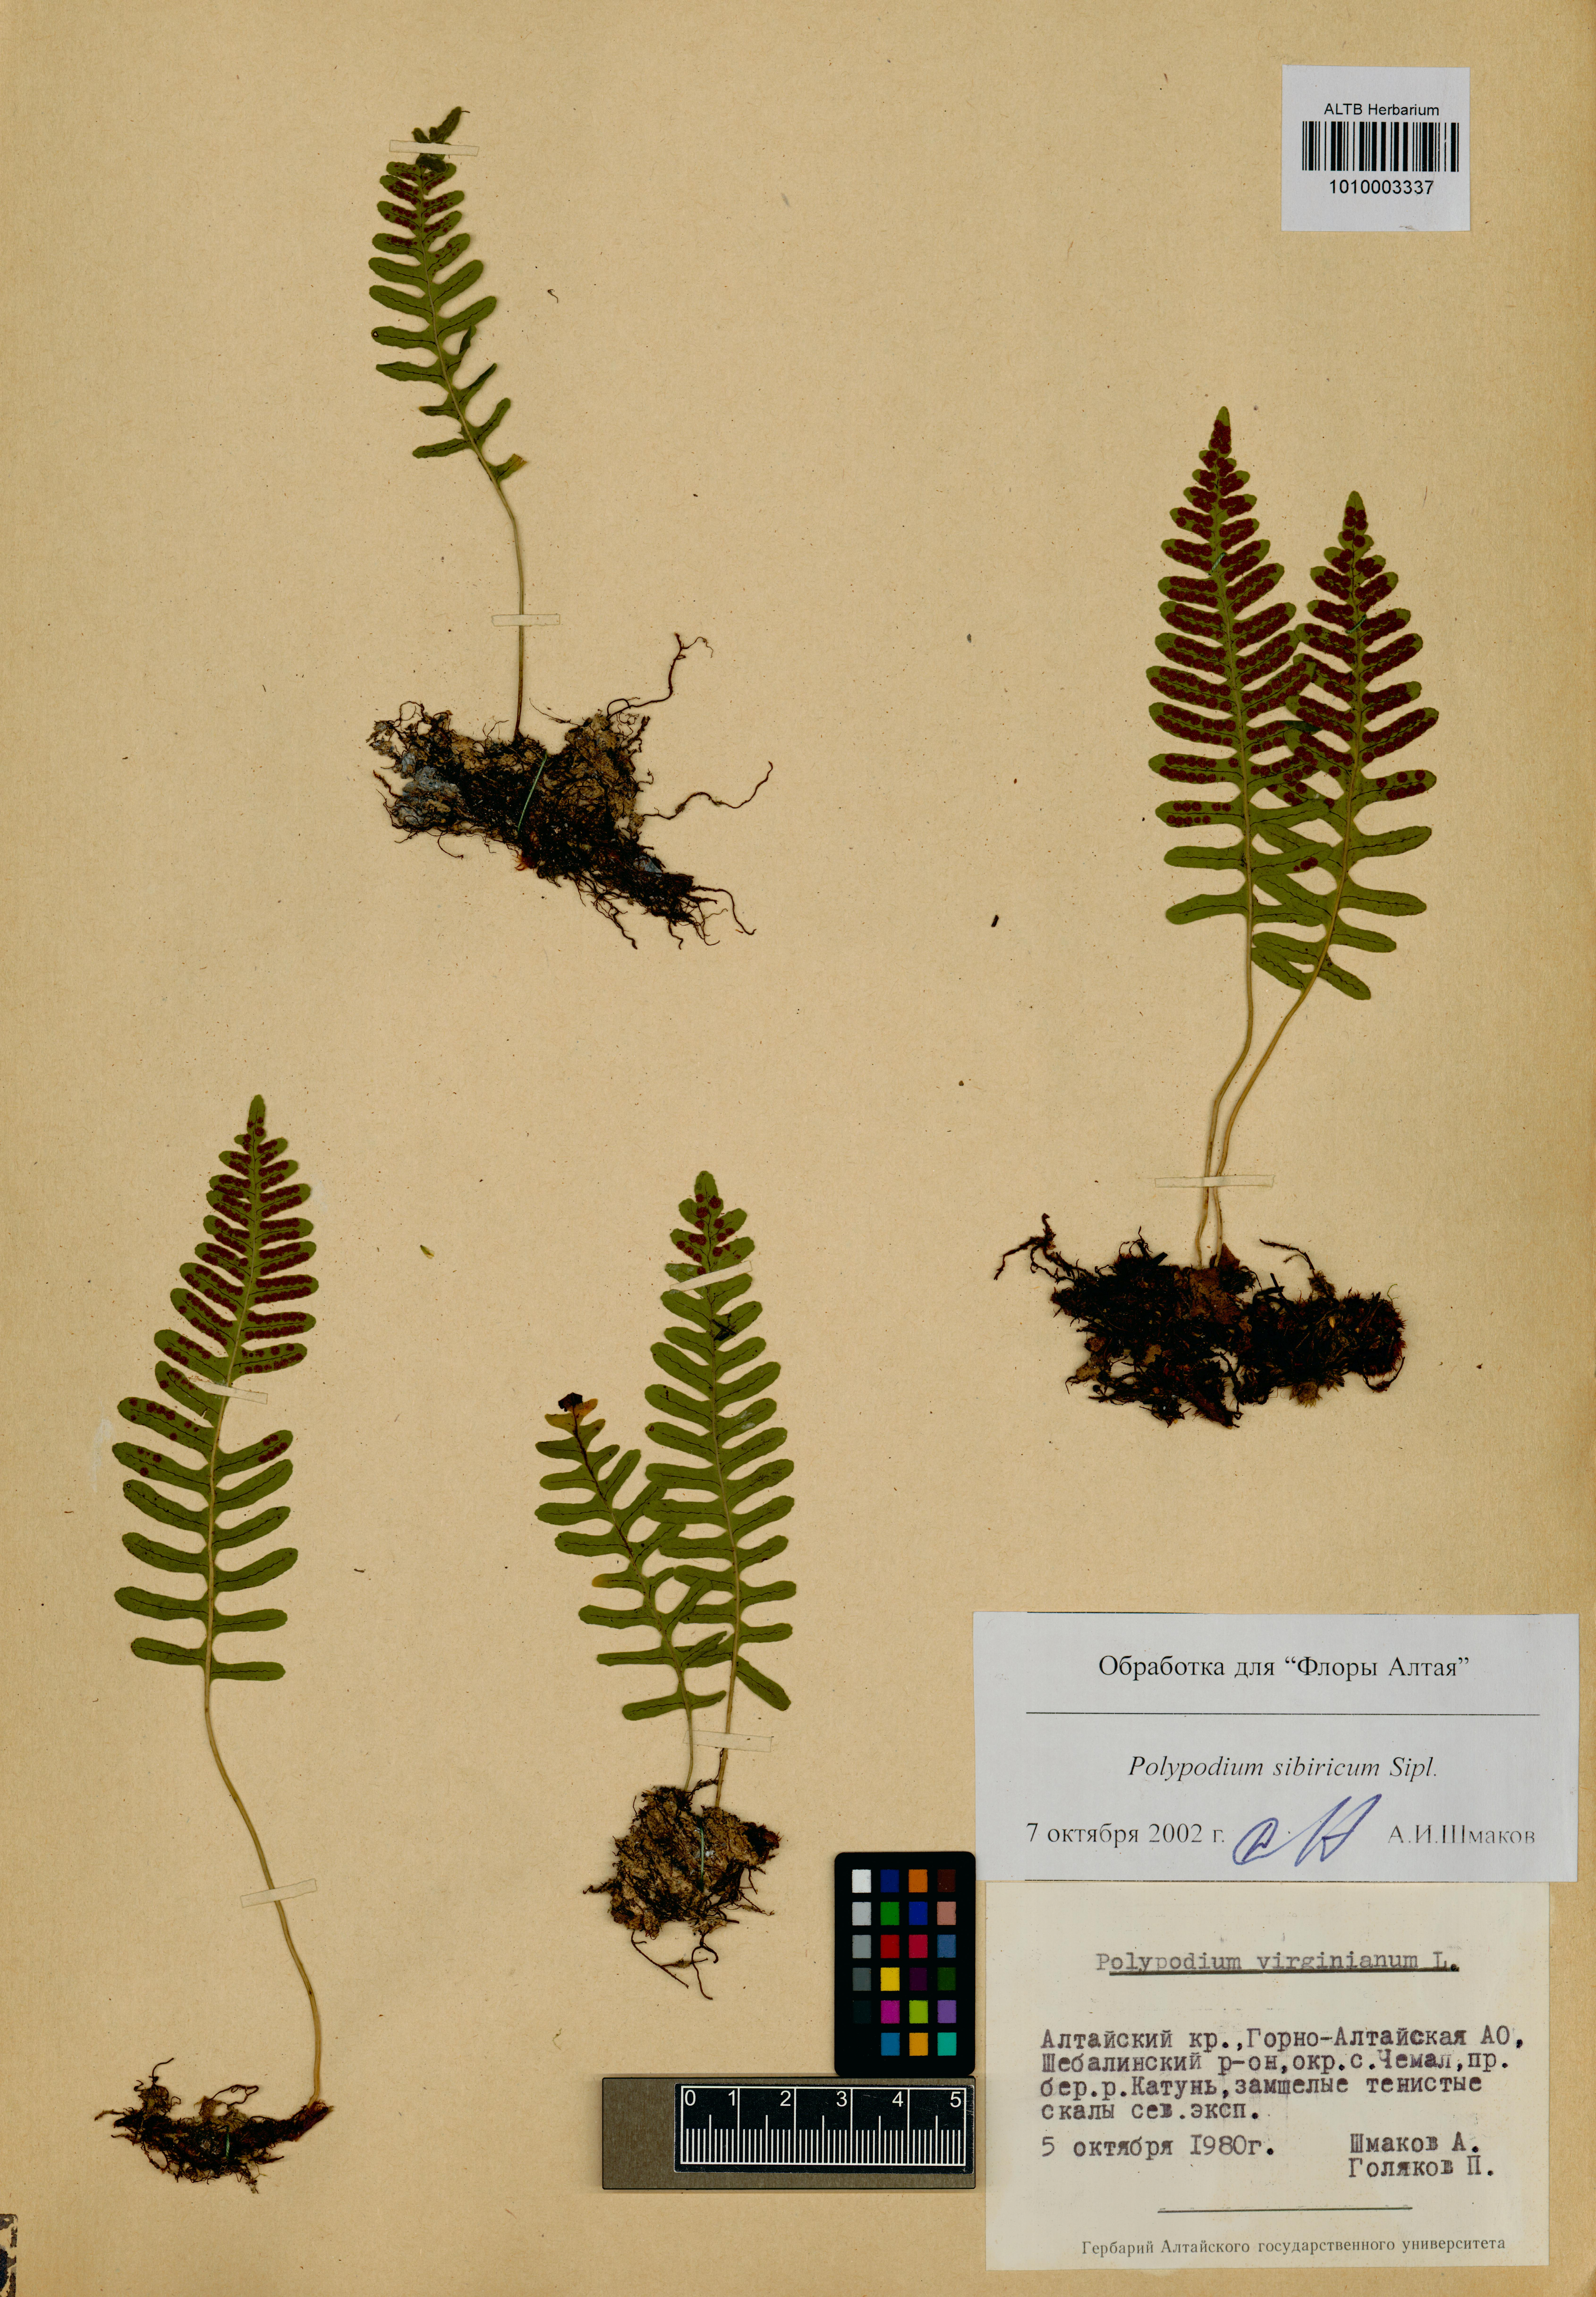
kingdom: Plantae
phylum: Tracheophyta
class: Polypodiopsida
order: Polypodiales
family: Polypodiaceae
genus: Polypodium
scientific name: Polypodium sibiricum
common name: Siberian polypody
